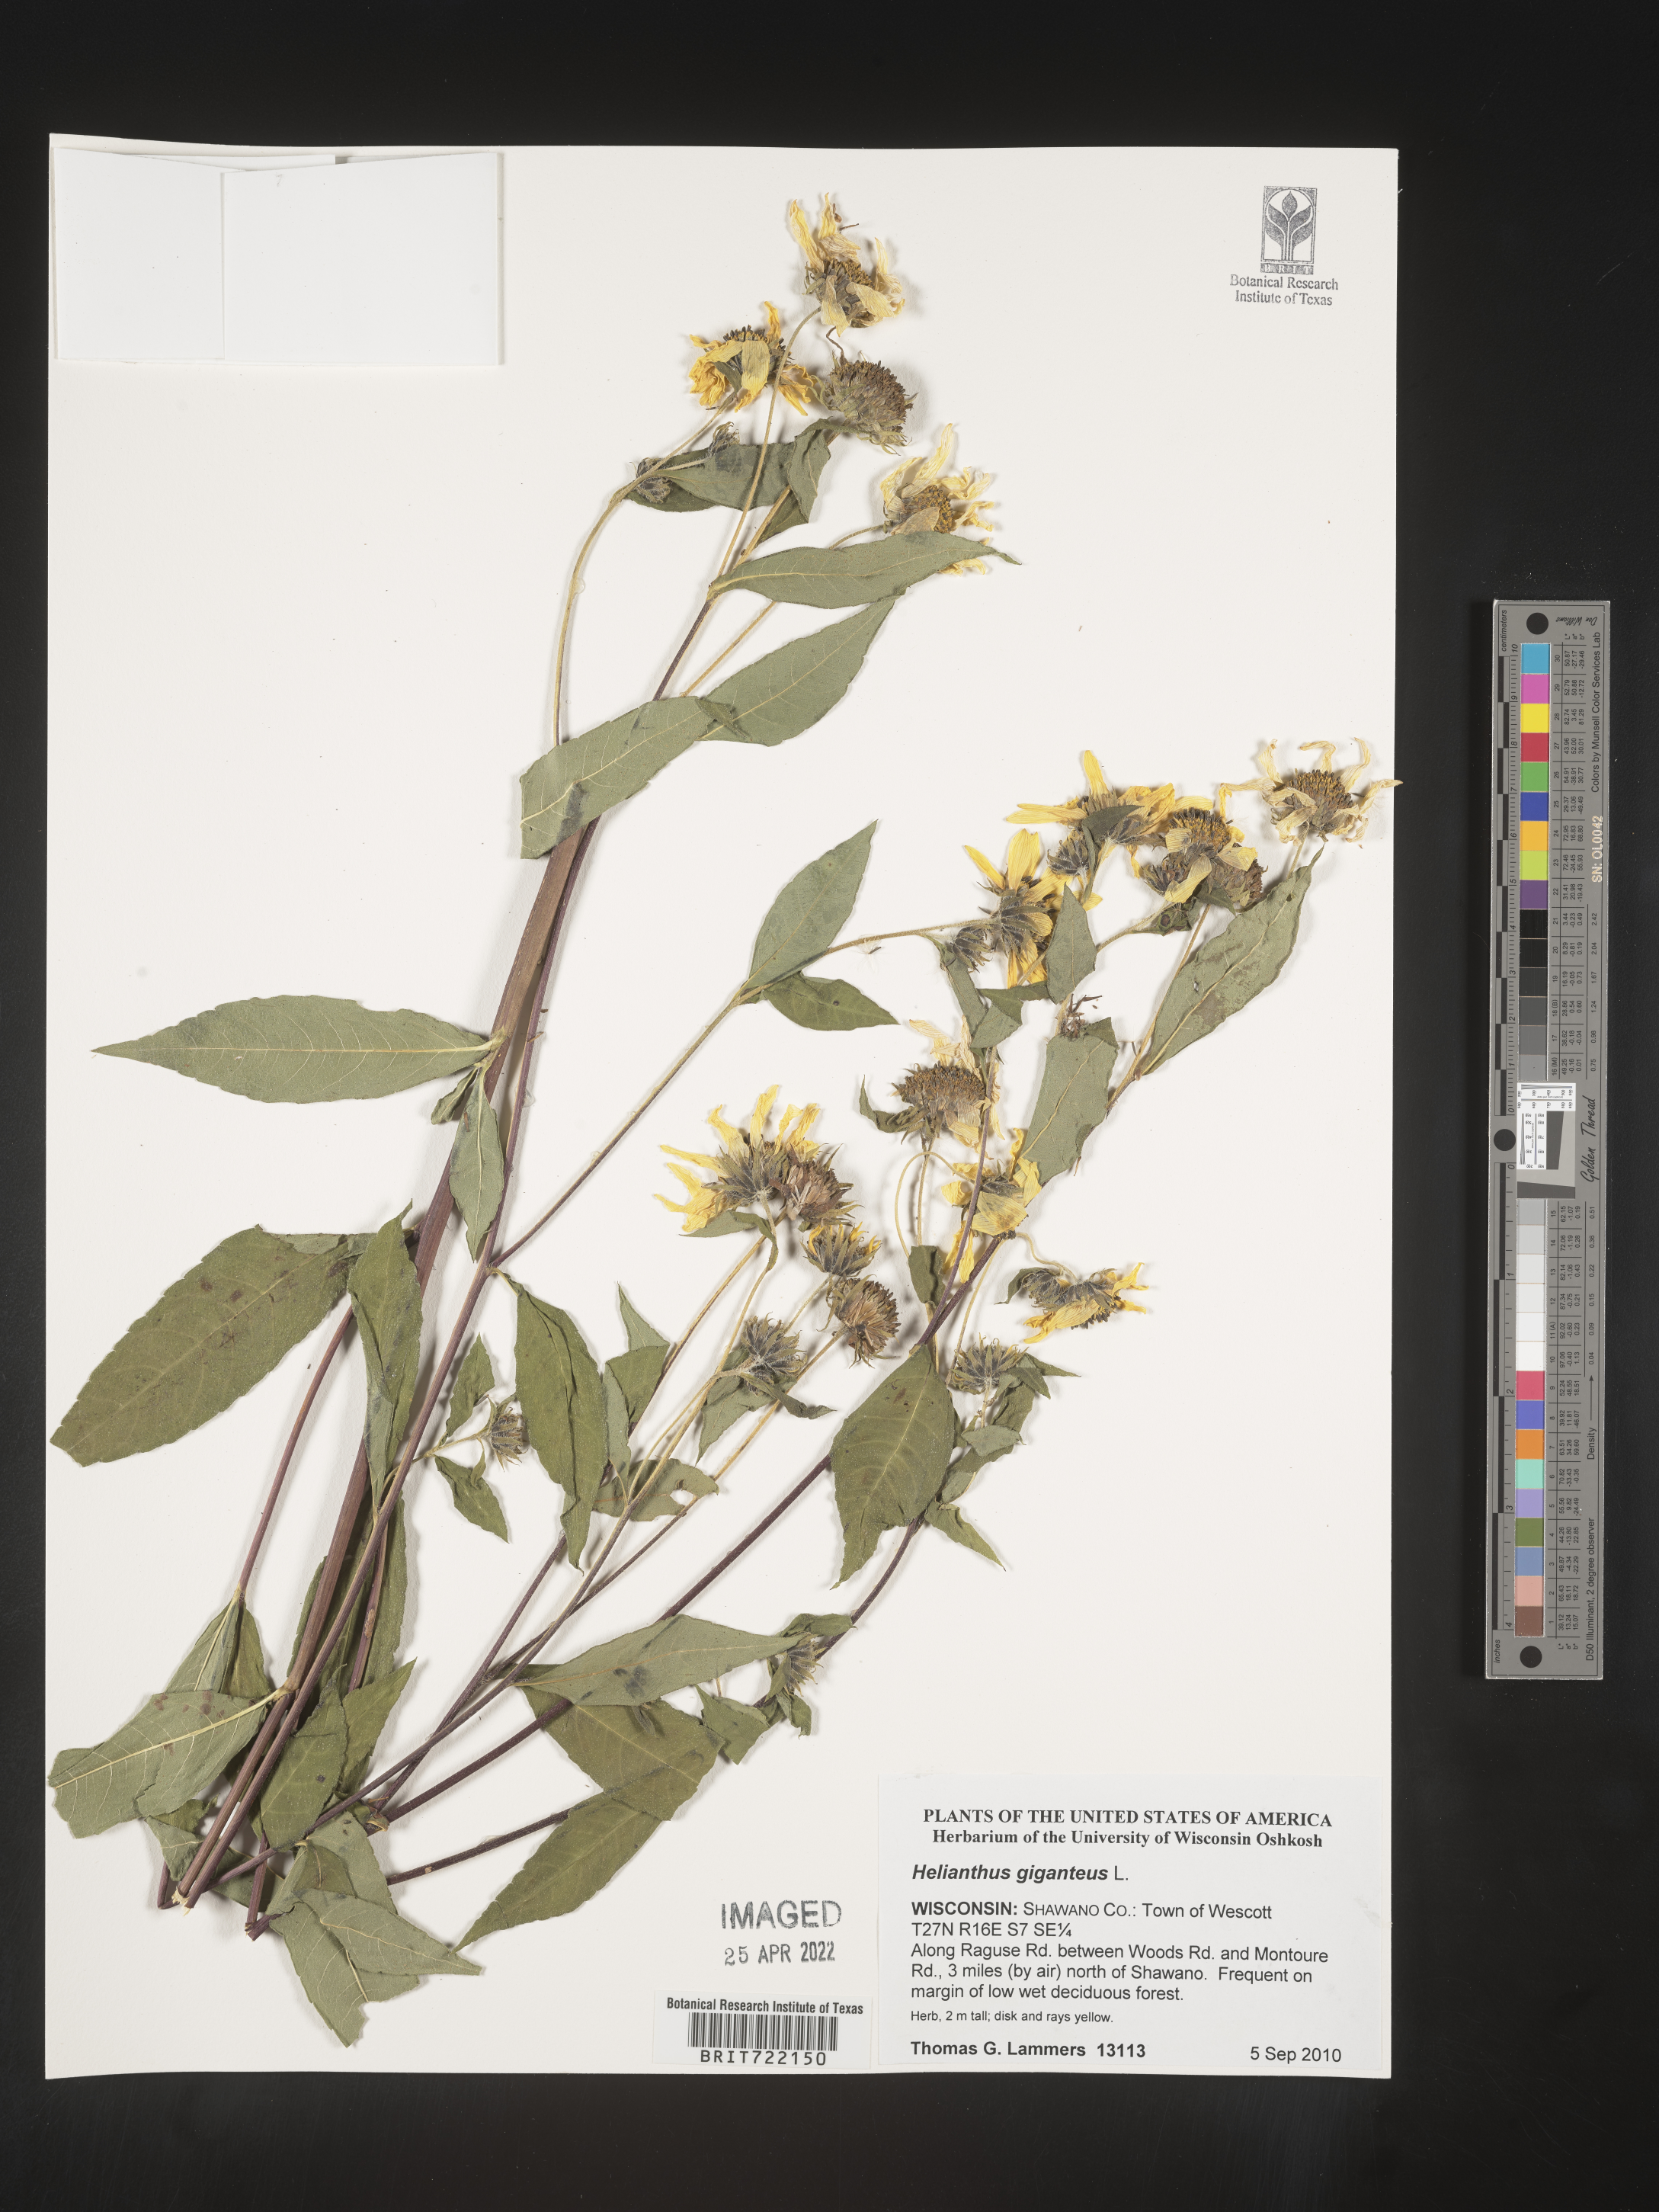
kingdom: Plantae
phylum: Tracheophyta
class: Magnoliopsida
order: Asterales
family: Asteraceae
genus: Helianthus
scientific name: Helianthus giganteus
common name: Giant sunflower
